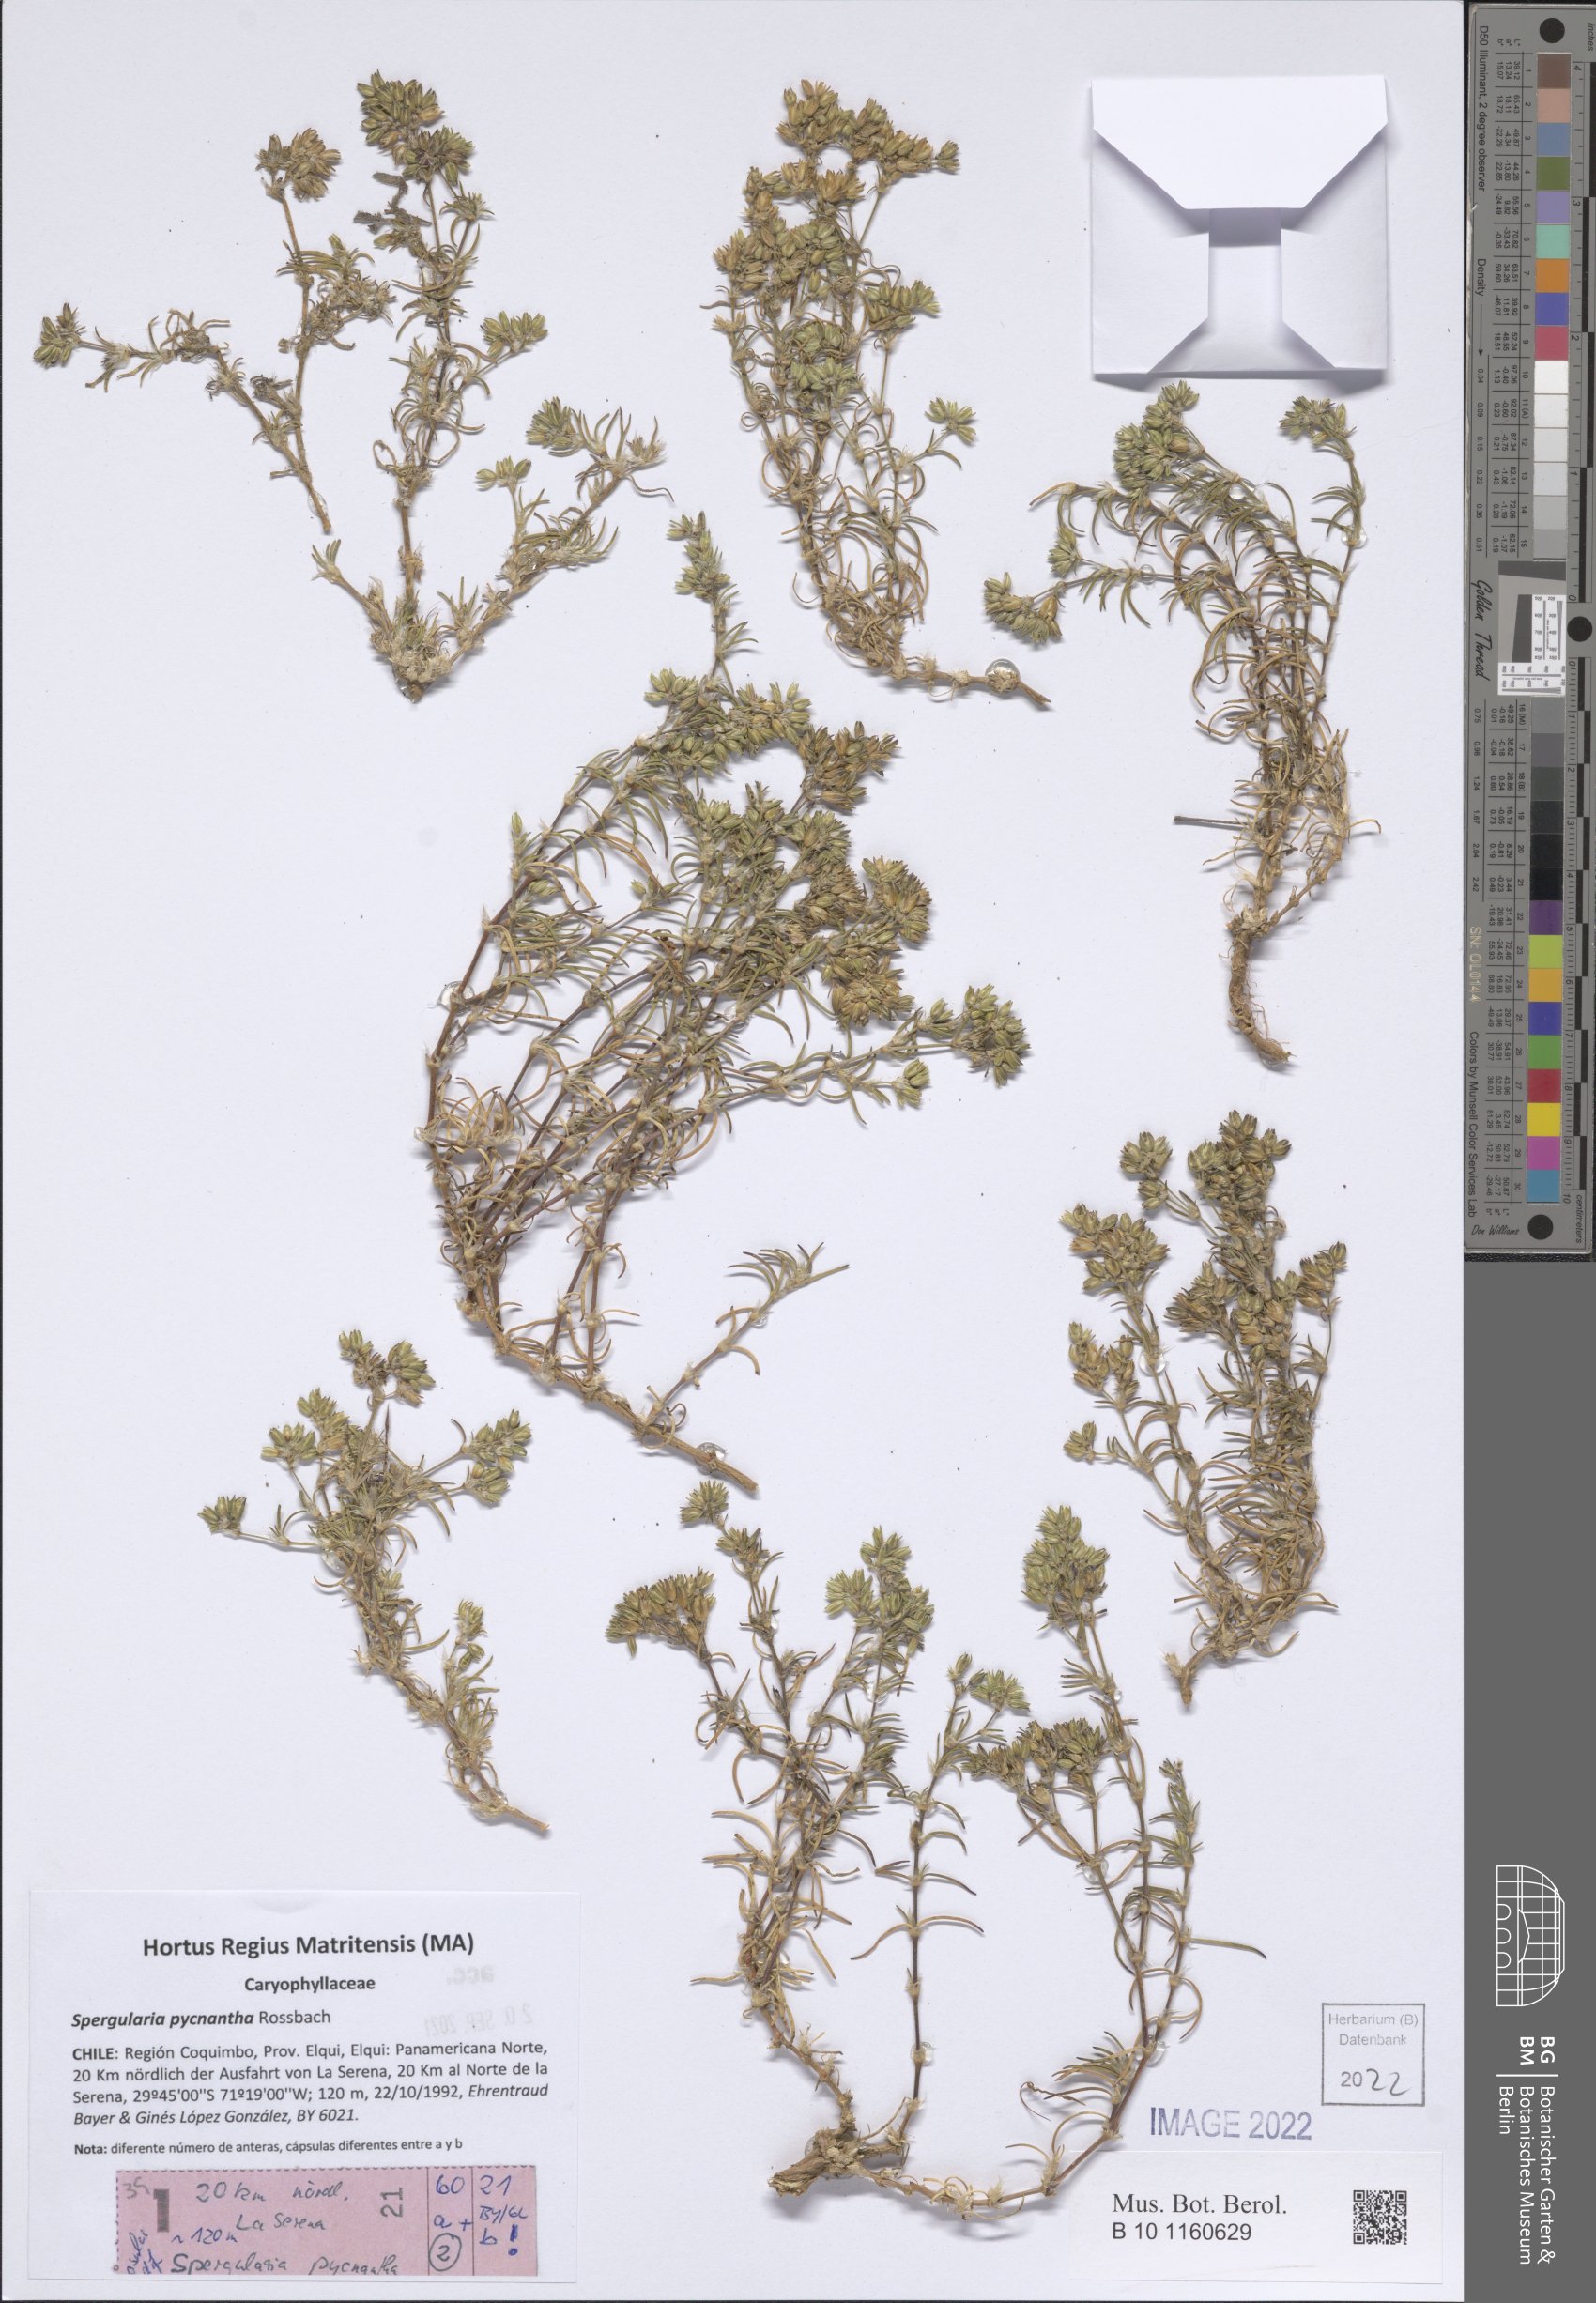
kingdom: Plantae
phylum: Tracheophyta
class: Magnoliopsida
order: Caryophyllales
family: Caryophyllaceae
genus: Spergularia
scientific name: Spergularia pycnantha
